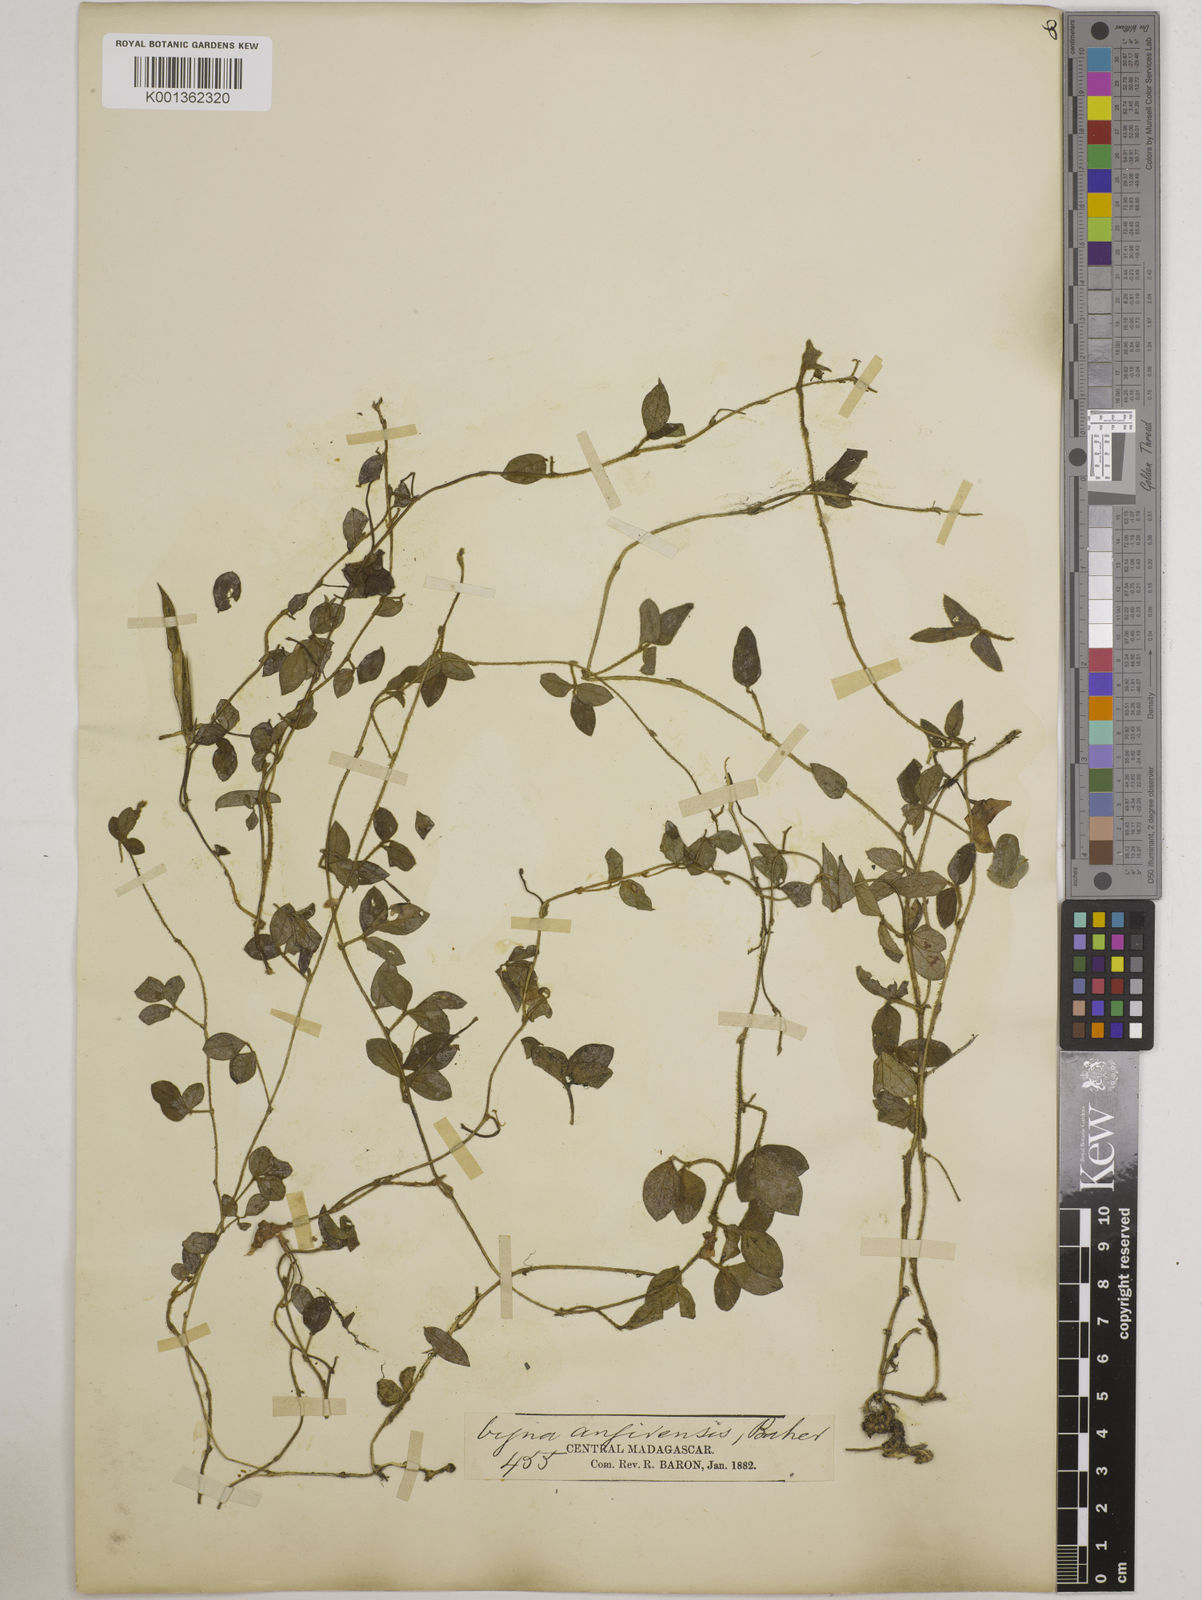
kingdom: Plantae
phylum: Tracheophyta
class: Magnoliopsida
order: Fabales
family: Fabaceae
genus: Vigna
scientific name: Vigna angivensis
